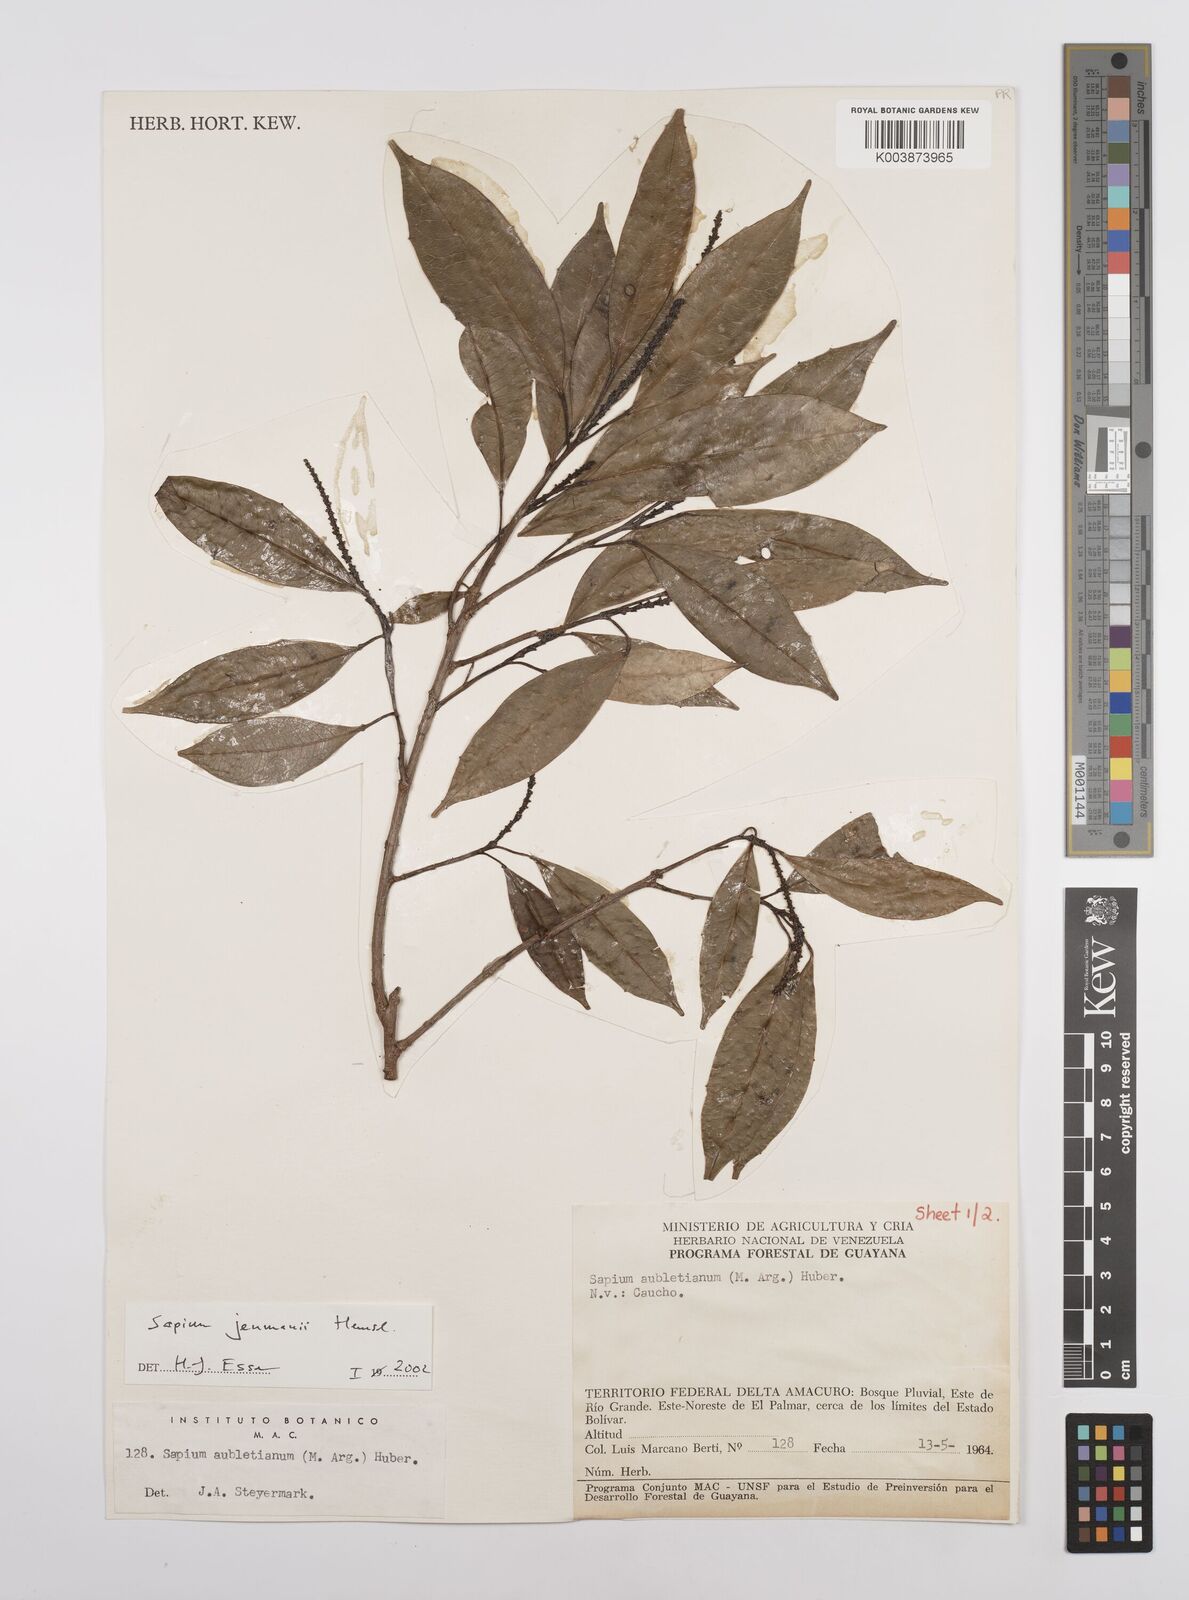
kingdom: Plantae
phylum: Tracheophyta
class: Magnoliopsida
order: Malpighiales
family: Euphorbiaceae
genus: Sapium
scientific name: Sapium jenmannii
